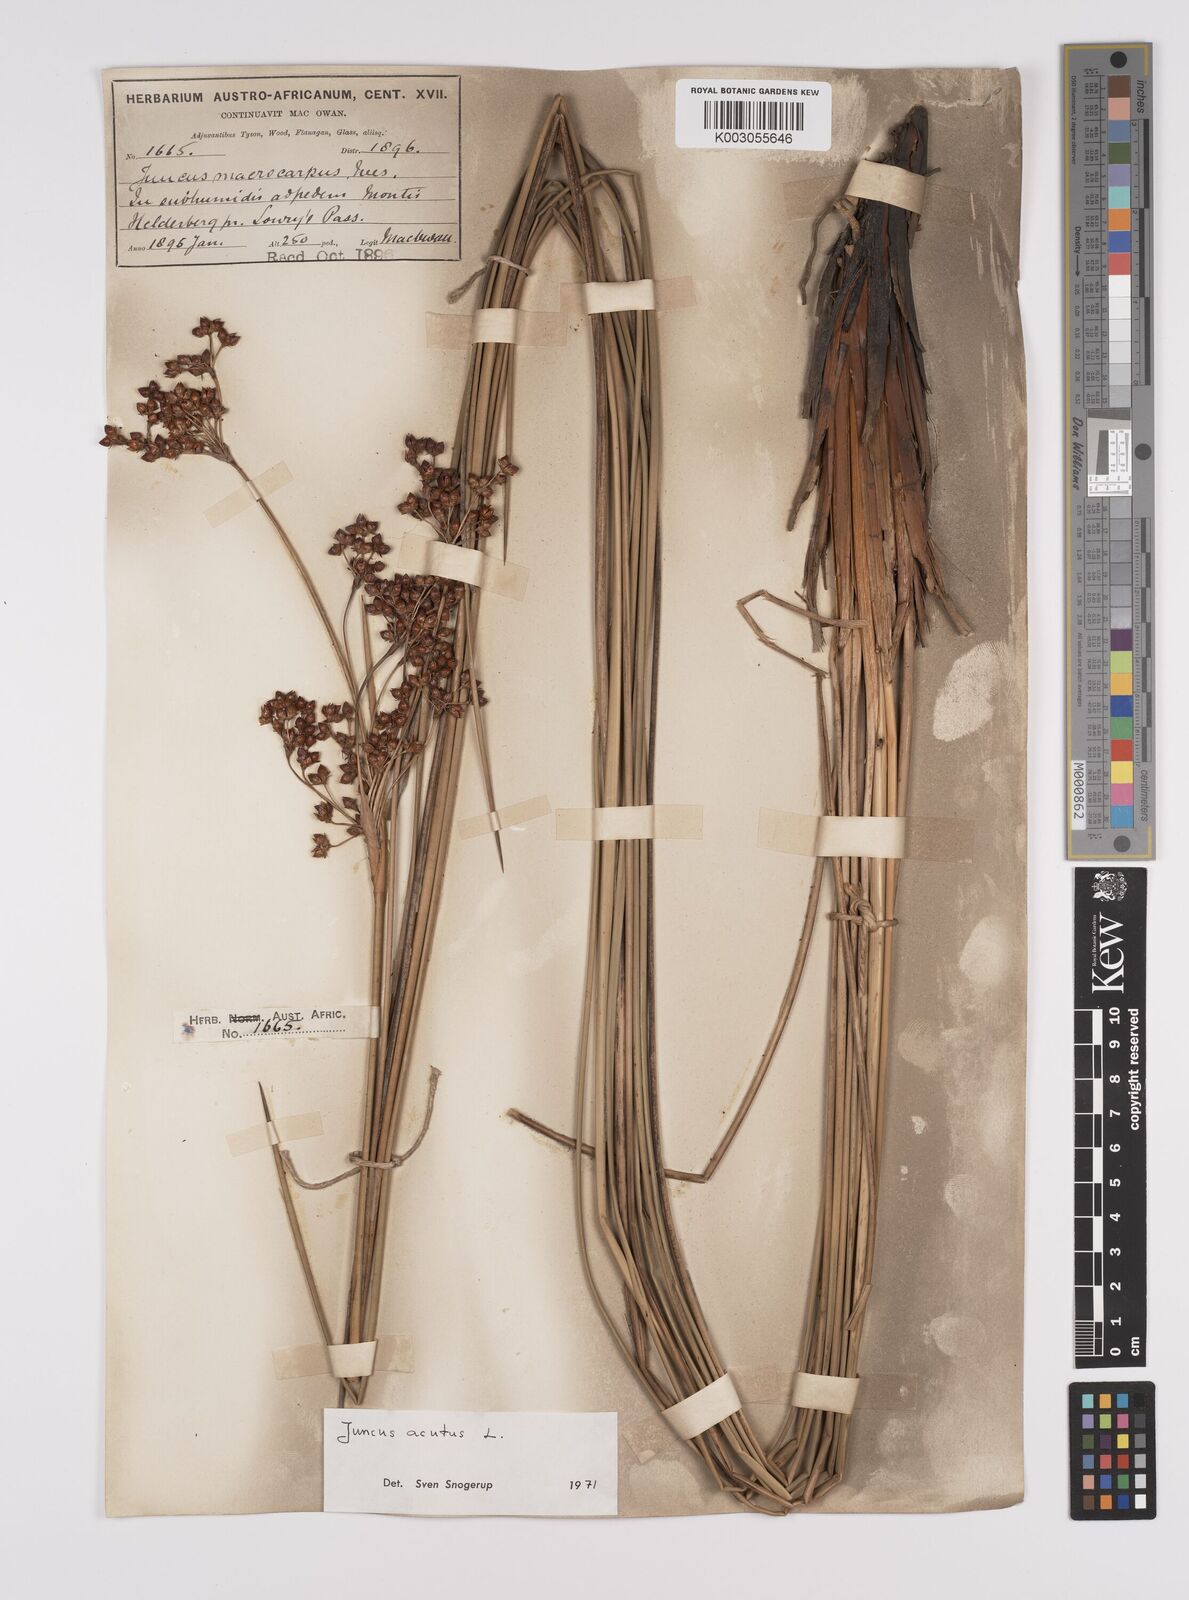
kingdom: Plantae
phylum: Tracheophyta
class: Liliopsida
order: Poales
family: Juncaceae
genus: Juncus
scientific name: Juncus acutus
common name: Sharp rush
